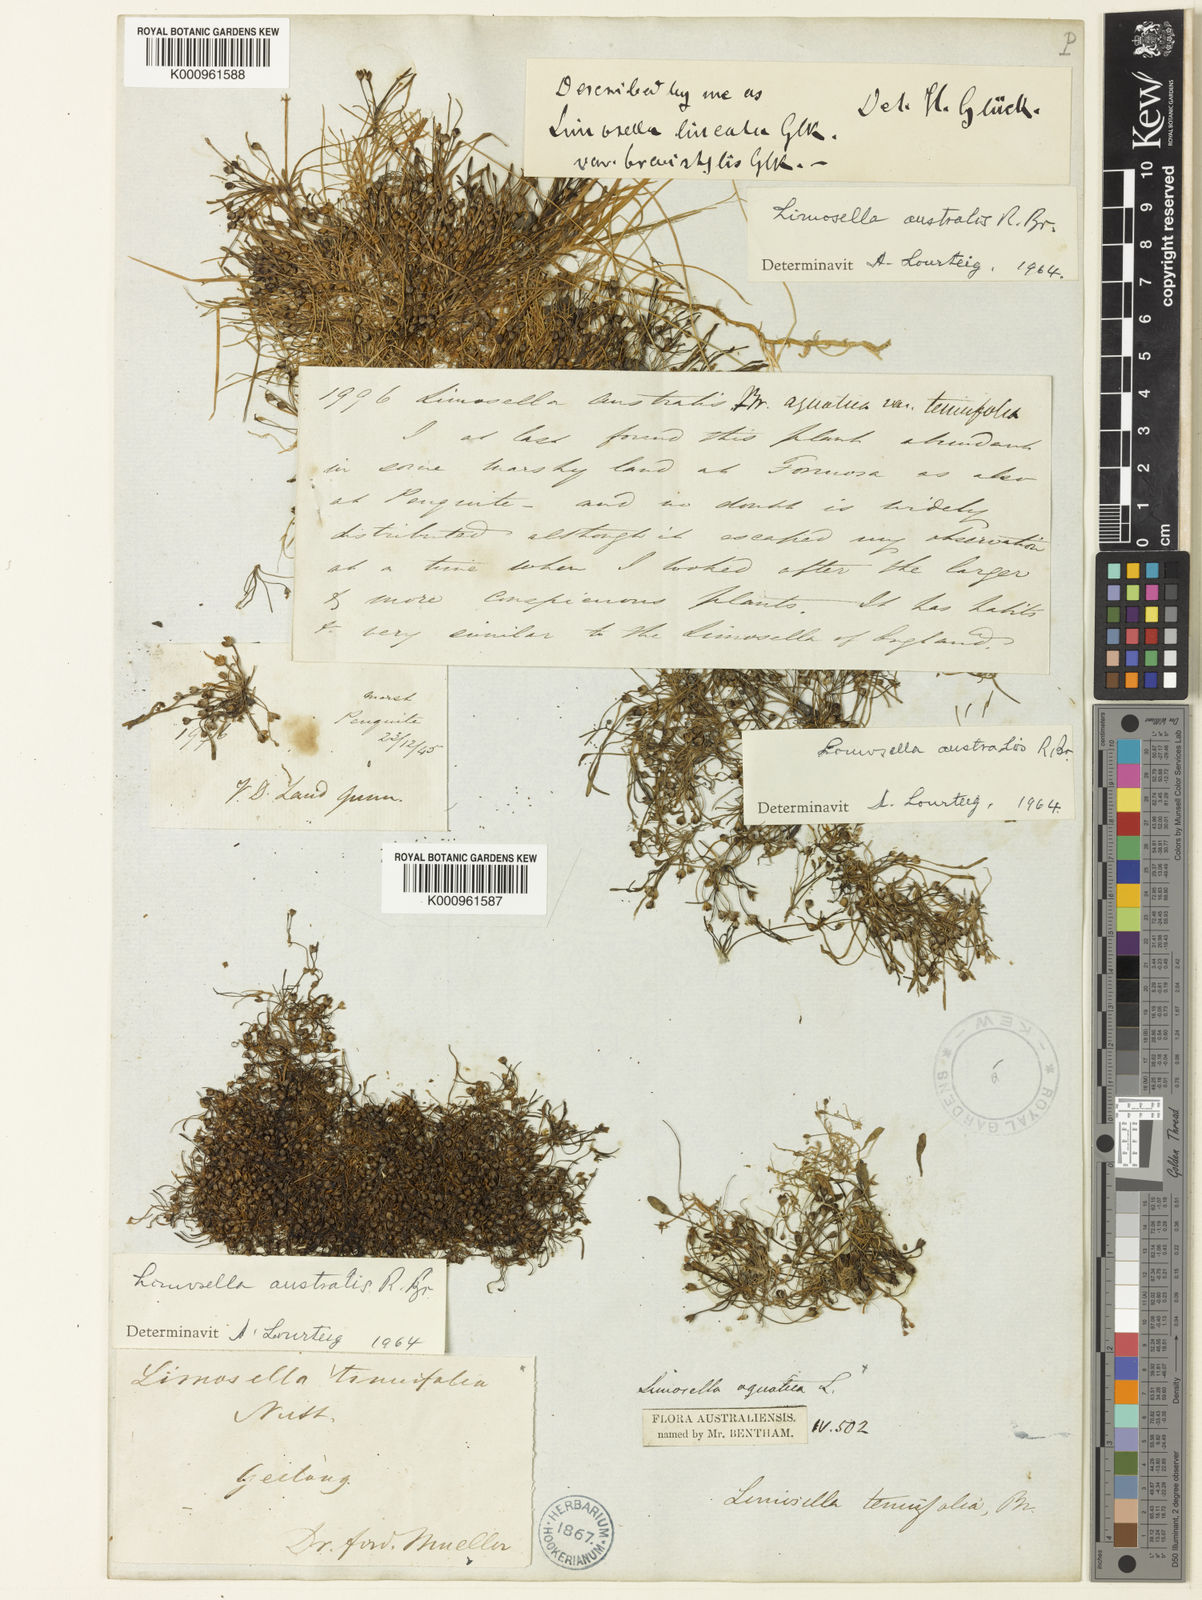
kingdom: Plantae
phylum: Tracheophyta
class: Magnoliopsida
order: Lamiales
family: Scrophulariaceae
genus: Limosella
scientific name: Limosella australis
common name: Welsh mudwort
